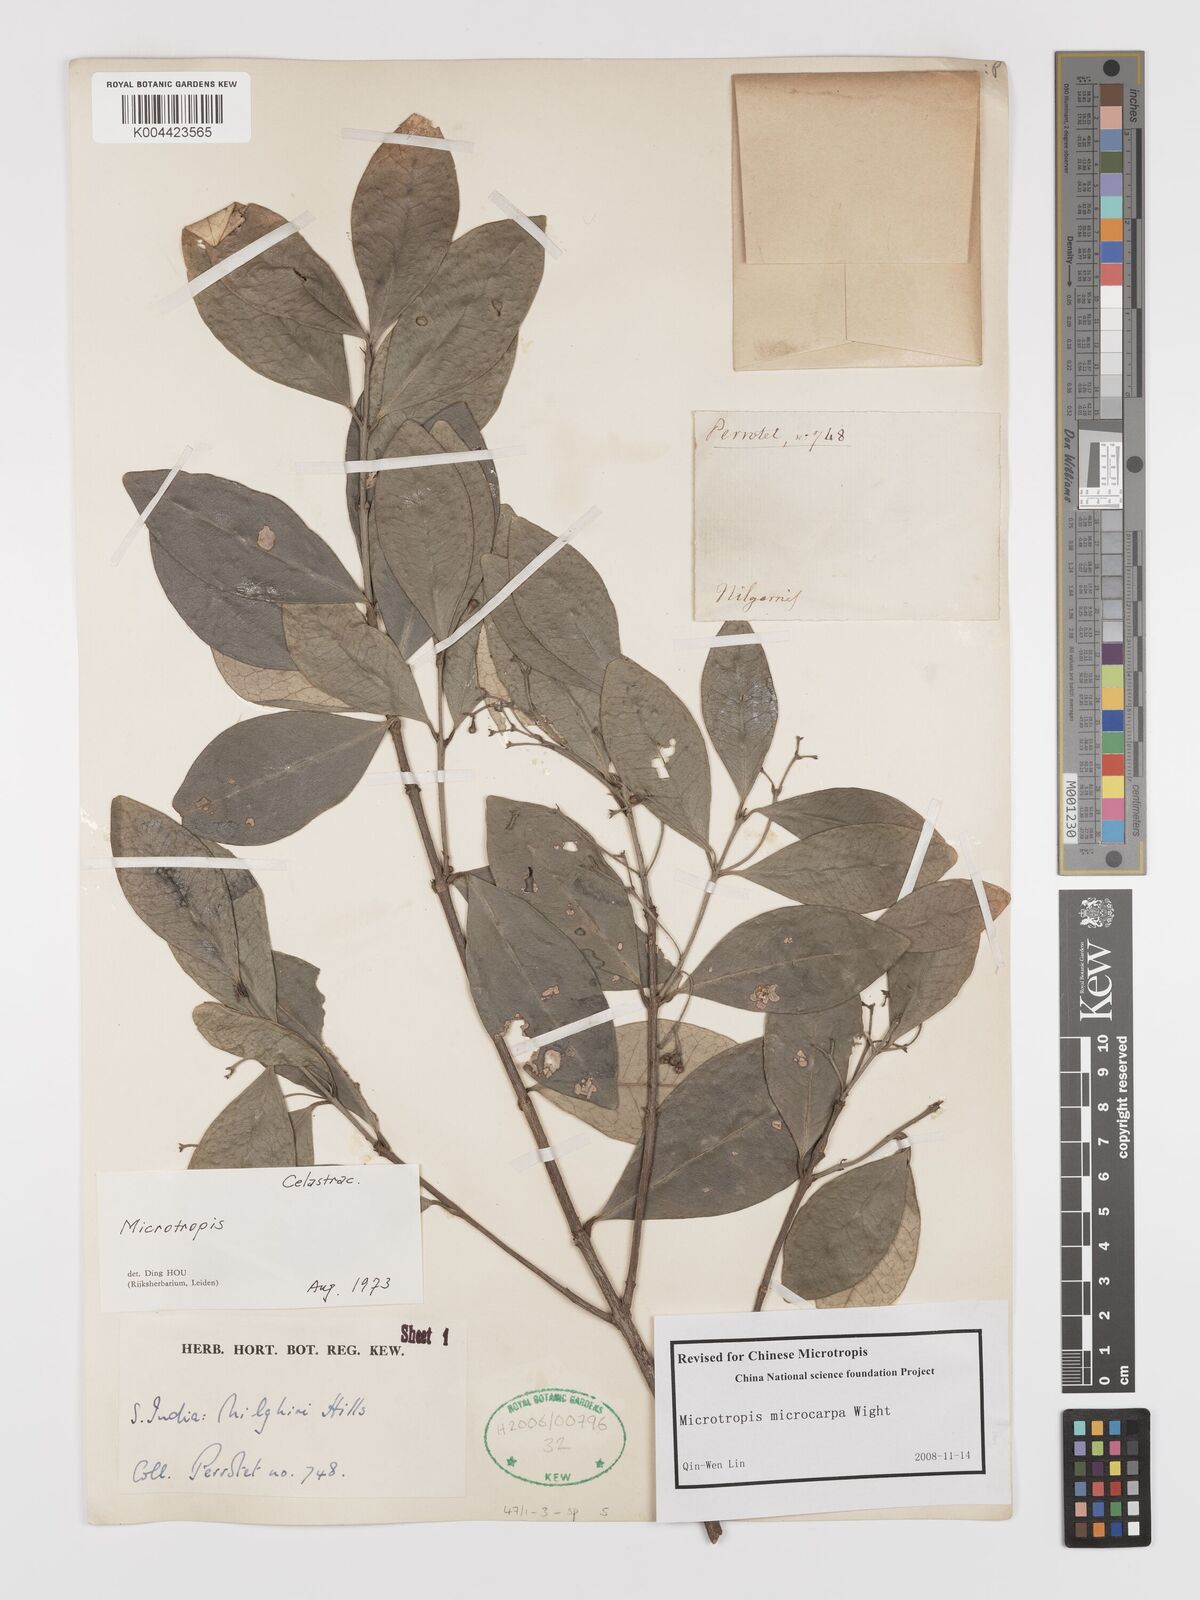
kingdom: Plantae
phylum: Tracheophyta
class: Magnoliopsida
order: Celastrales
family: Celastraceae
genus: Microtropis
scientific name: Microtropis microcarpa
